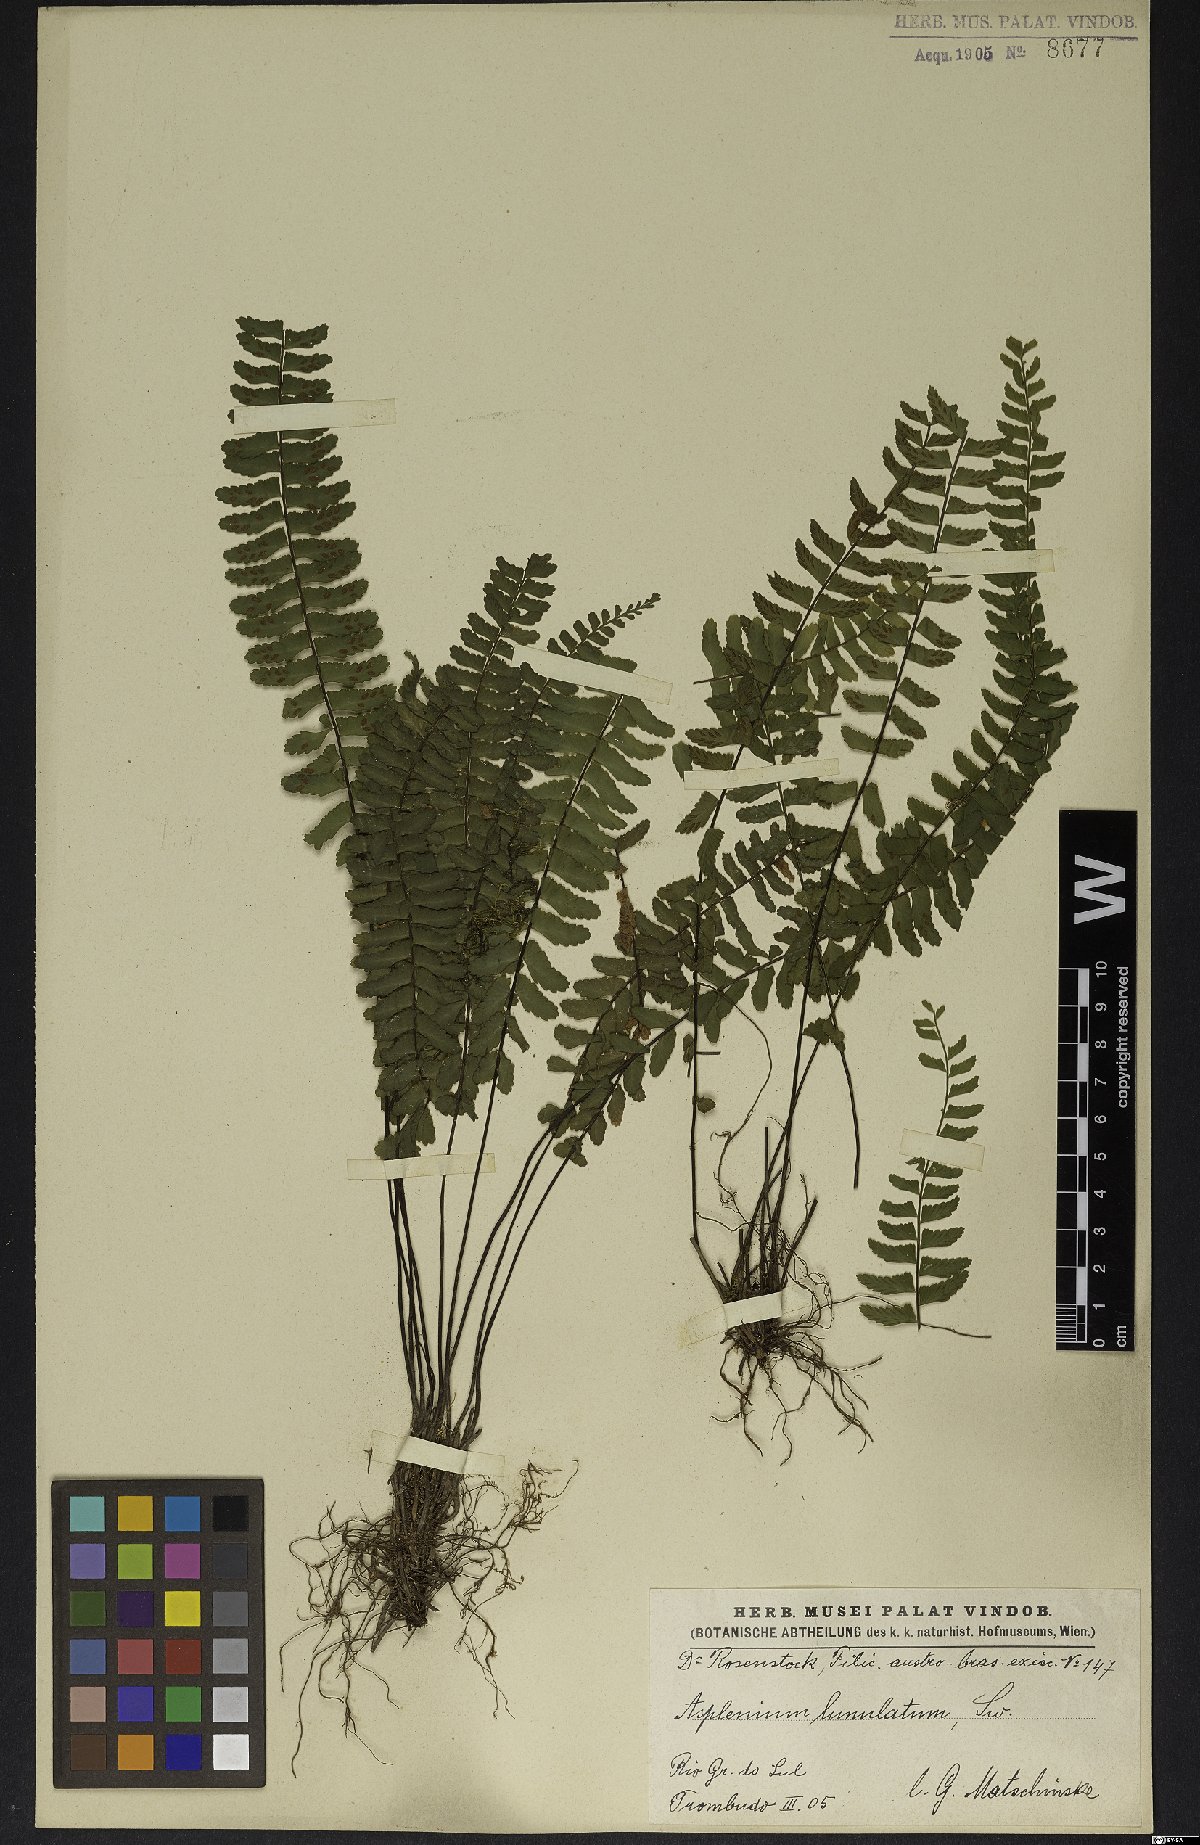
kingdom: Plantae
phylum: Tracheophyta
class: Polypodiopsida
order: Polypodiales
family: Aspleniaceae
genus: Asplenium
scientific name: Asplenium lunulatum
